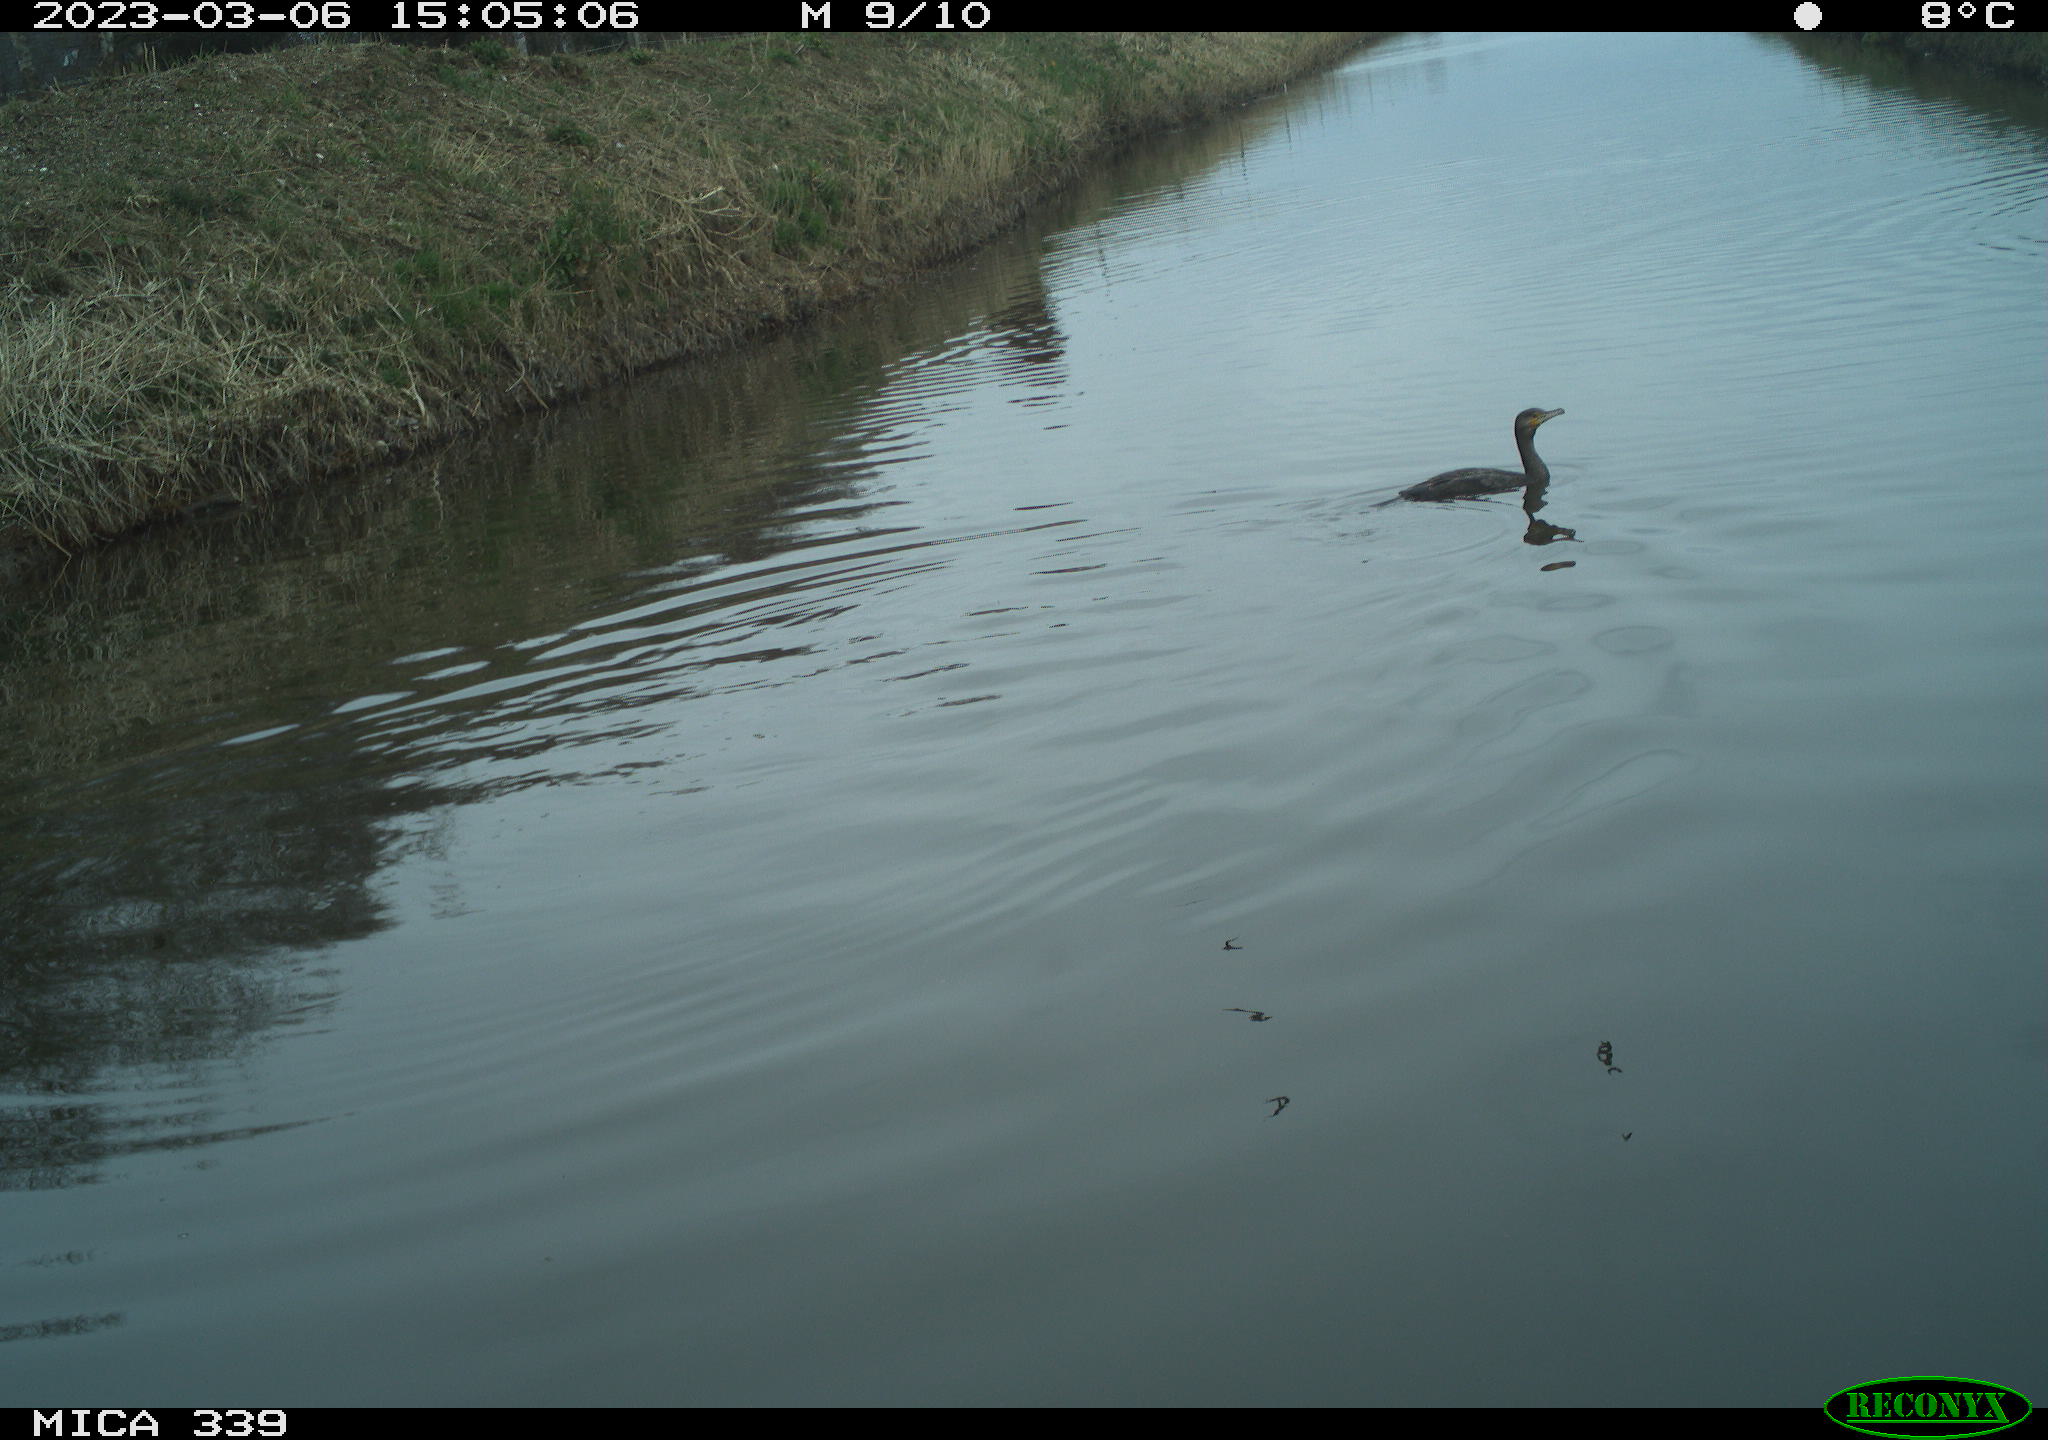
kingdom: Animalia
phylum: Chordata
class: Aves
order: Suliformes
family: Phalacrocoracidae
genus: Phalacrocorax
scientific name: Phalacrocorax carbo
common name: Great cormorant
